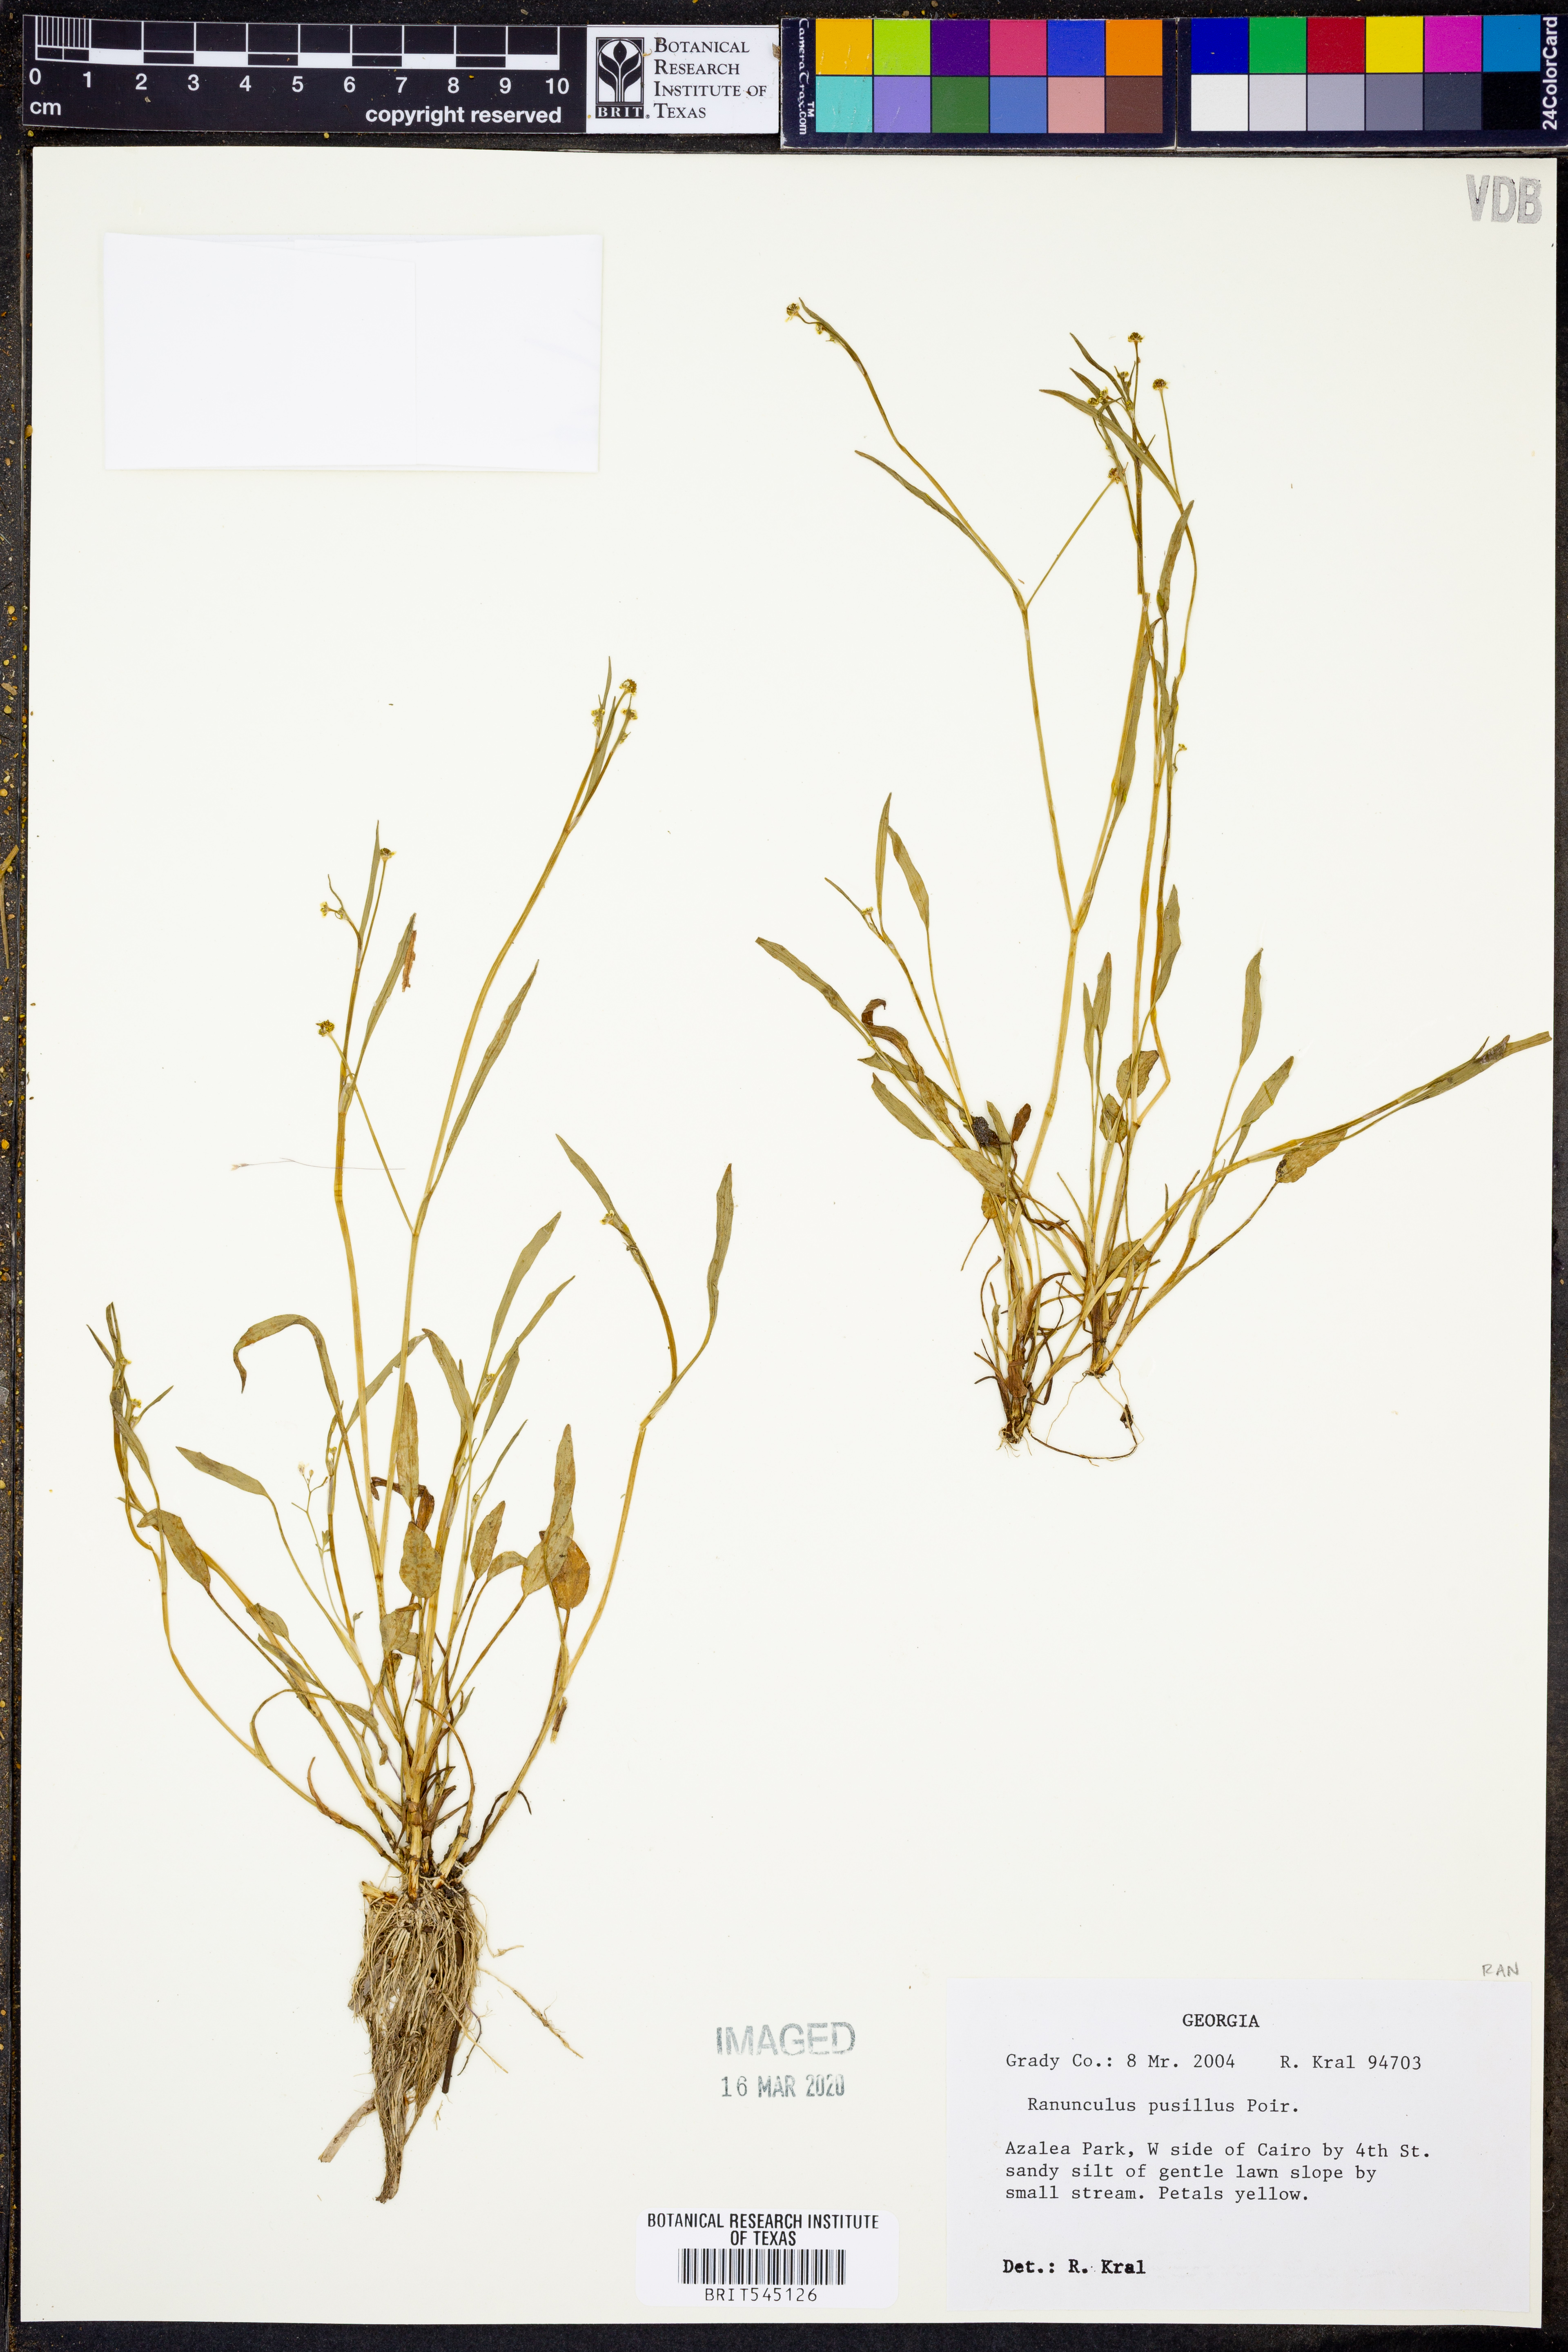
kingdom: Plantae
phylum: Tracheophyta
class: Magnoliopsida
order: Ranunculales
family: Ranunculaceae
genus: Ranunculus
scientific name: Ranunculus pusillus
